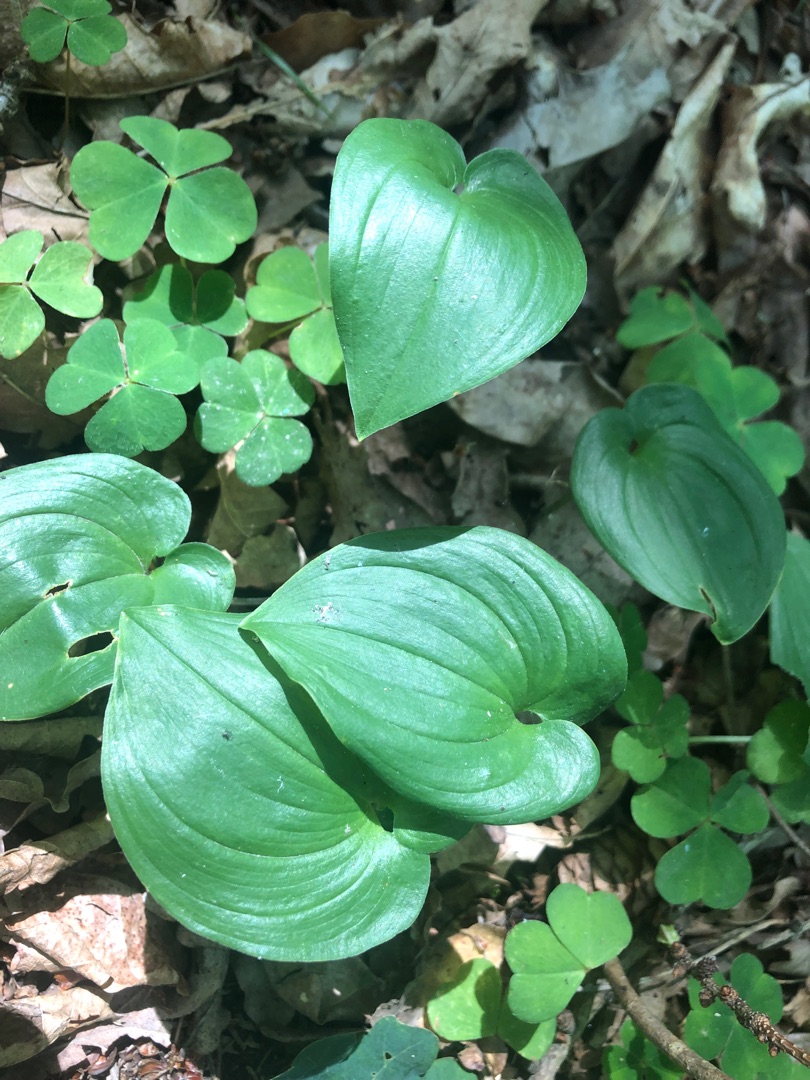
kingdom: Plantae
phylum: Tracheophyta
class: Liliopsida
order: Asparagales
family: Asparagaceae
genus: Maianthemum
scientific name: Maianthemum bifolium
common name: Majblomst
